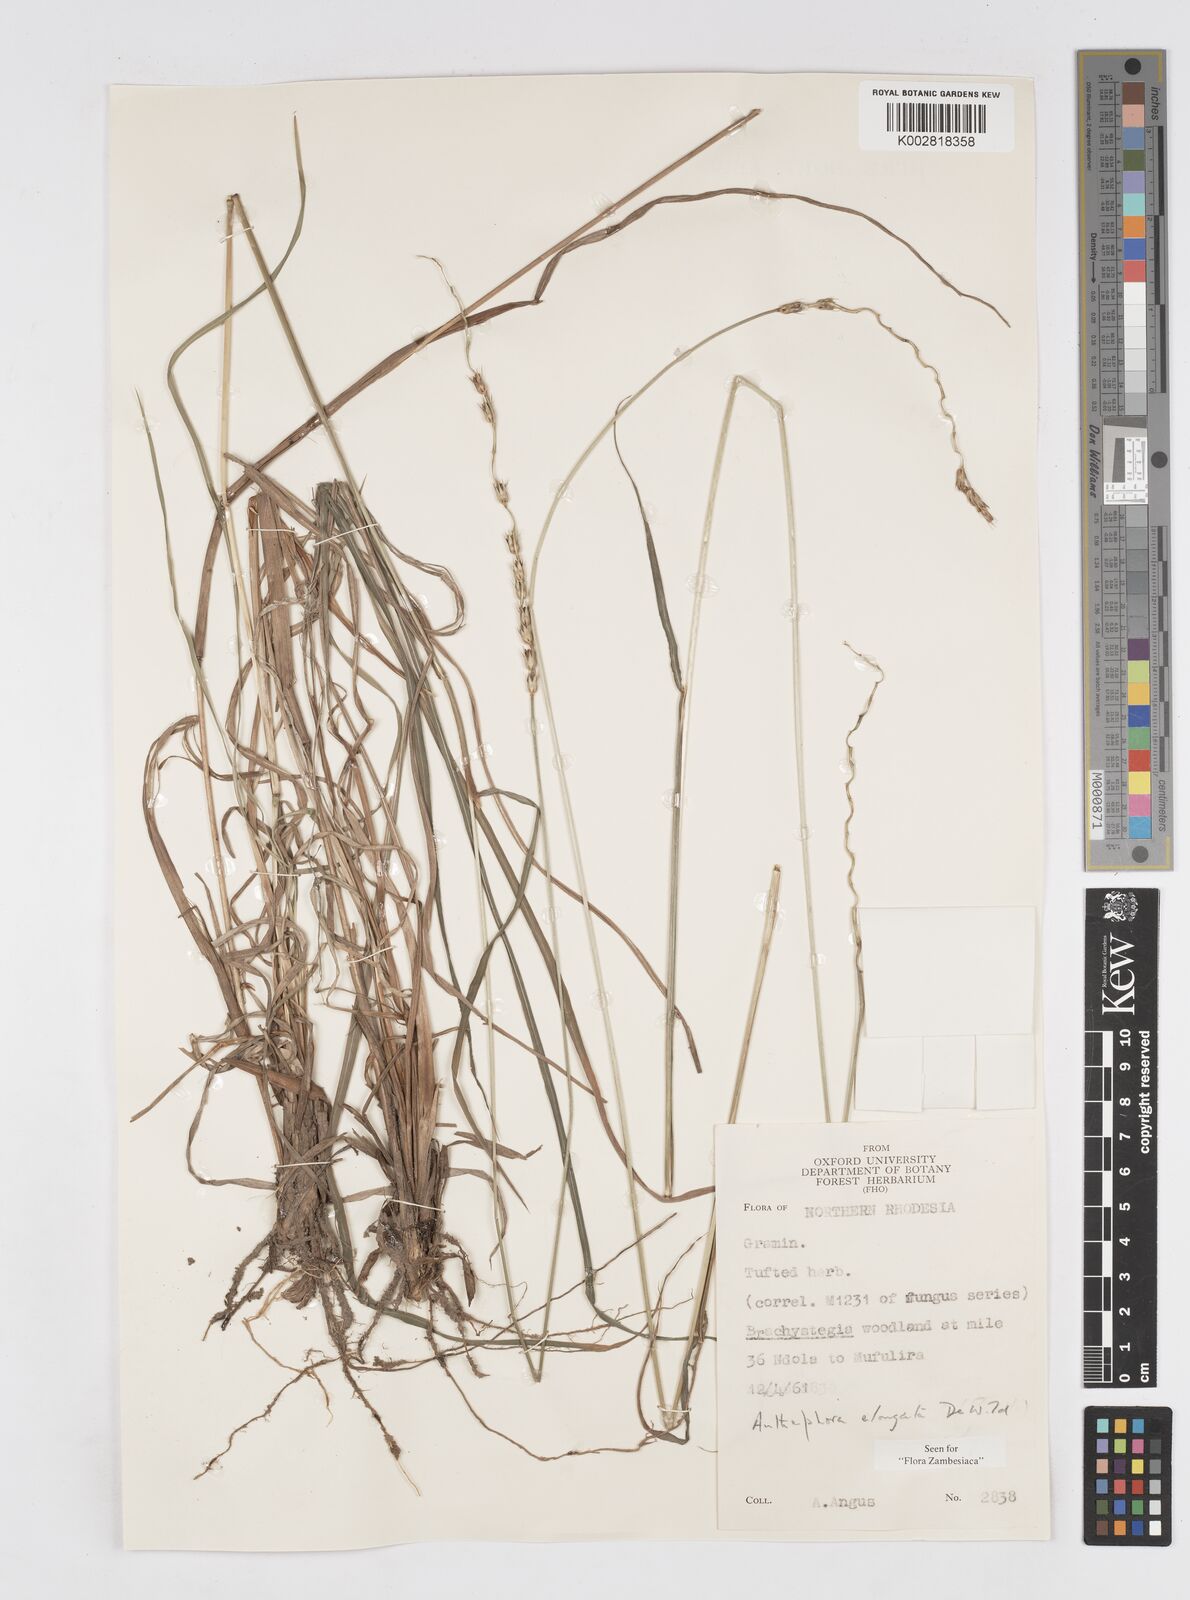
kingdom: Plantae
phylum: Tracheophyta
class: Liliopsida
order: Poales
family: Poaceae
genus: Anthephora
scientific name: Anthephora elongata
